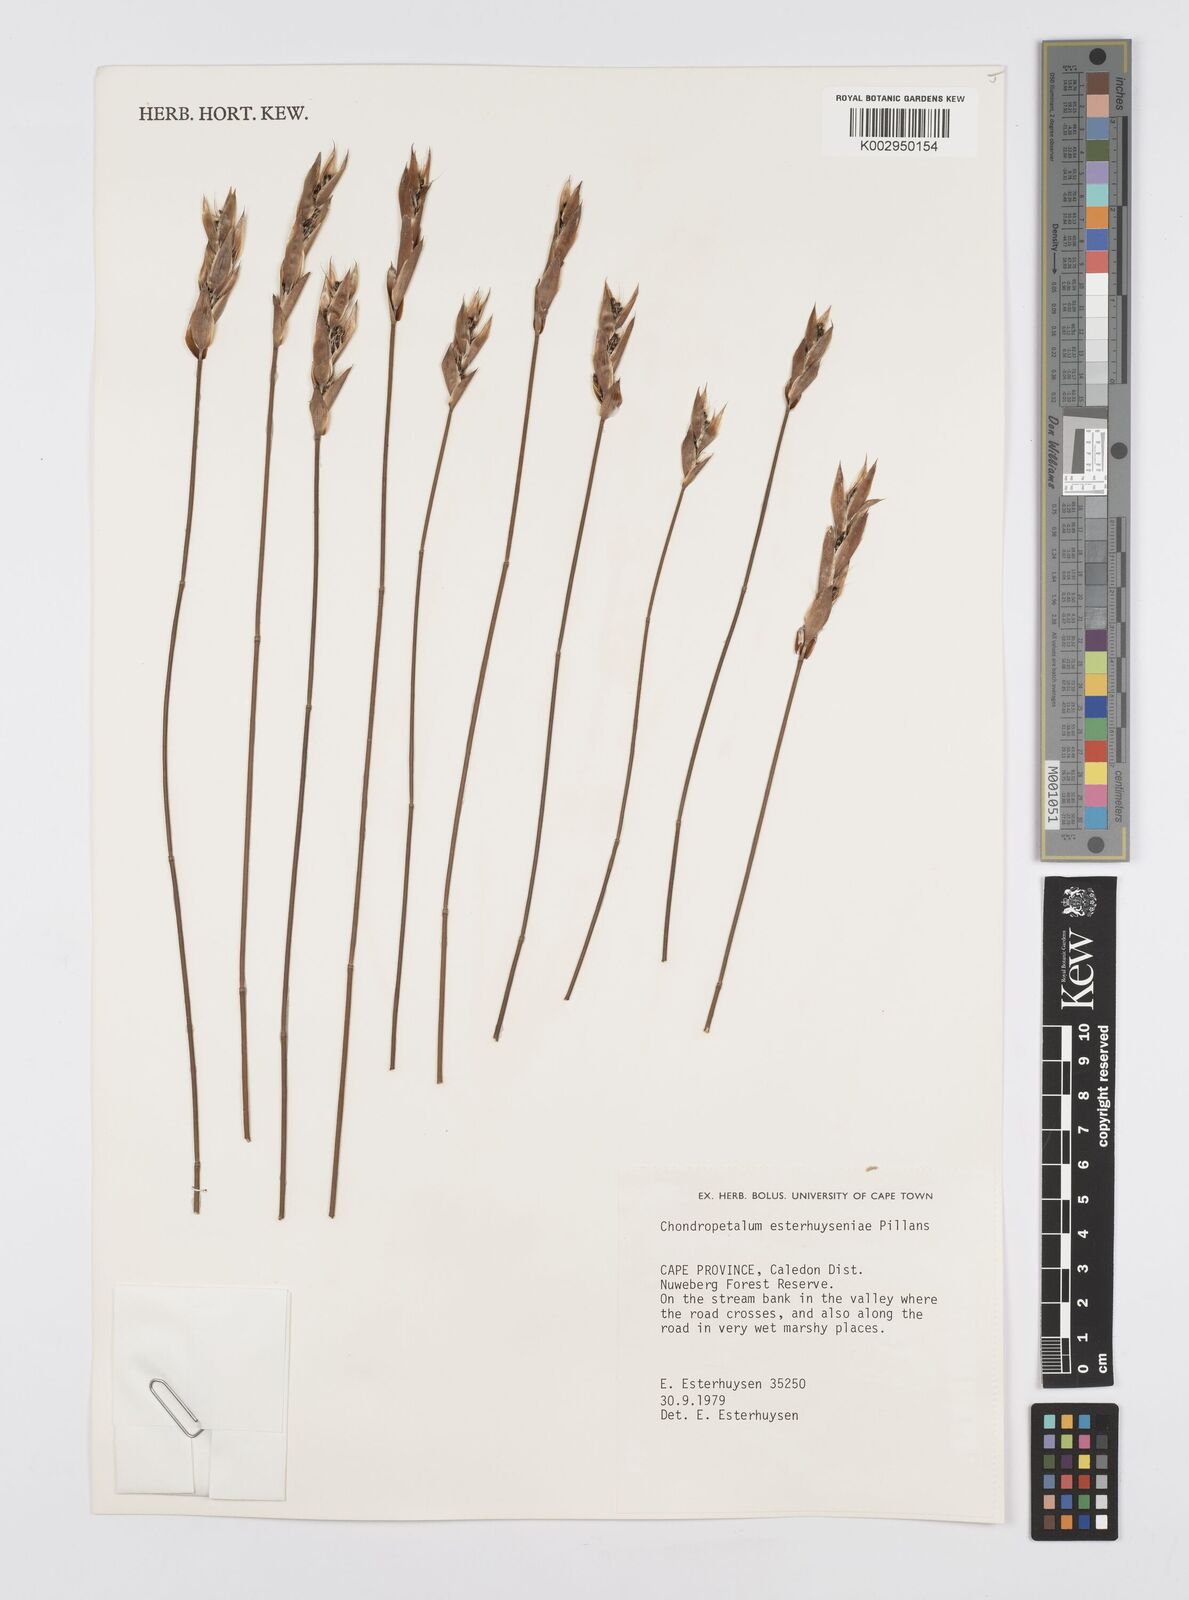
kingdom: Plantae
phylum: Tracheophyta
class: Liliopsida
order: Poales
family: Restionaceae
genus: Askidiosperma
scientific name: Askidiosperma esterhuyseniae
